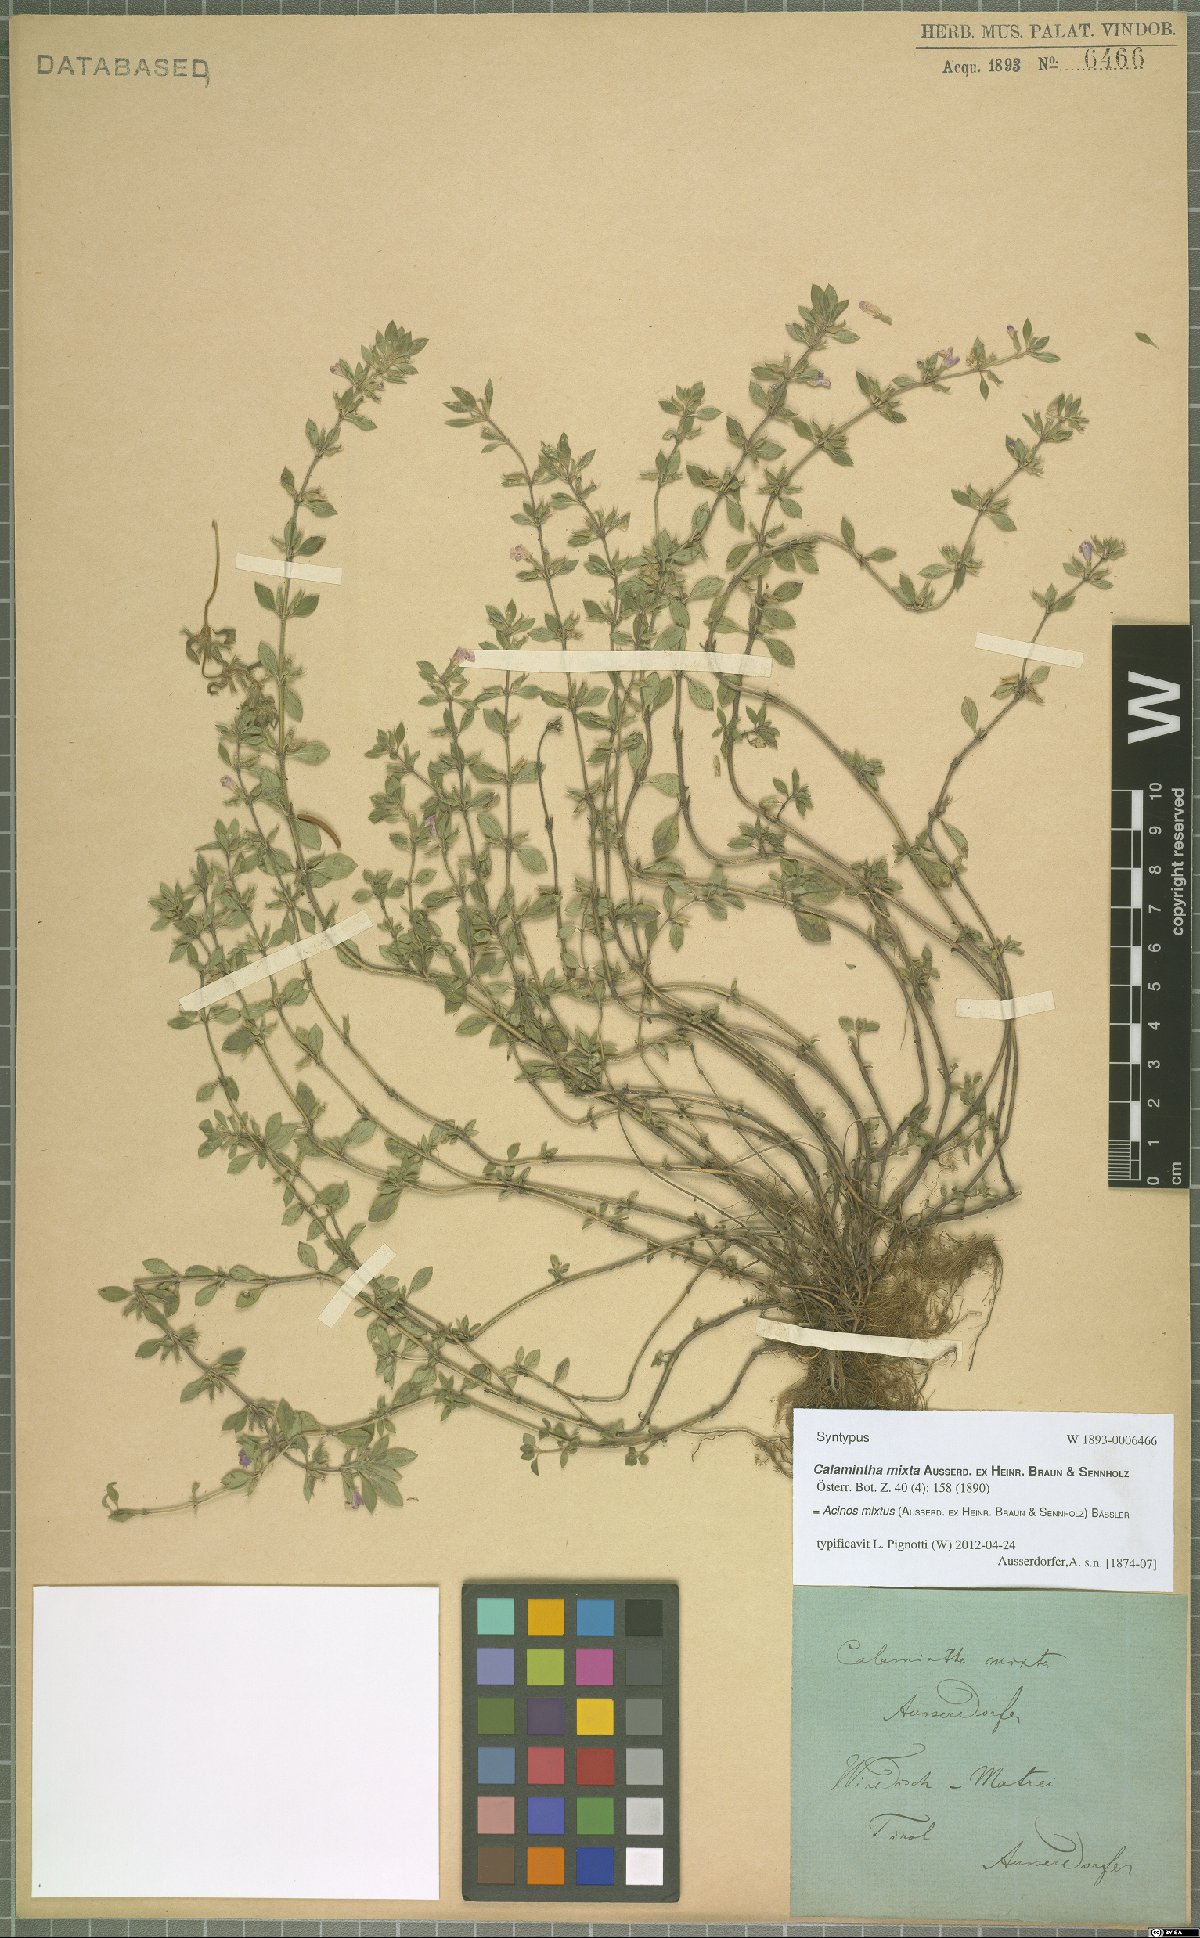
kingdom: Plantae
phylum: Tracheophyta
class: Magnoliopsida
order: Lamiales
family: Lamiaceae
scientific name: Lamiaceae
